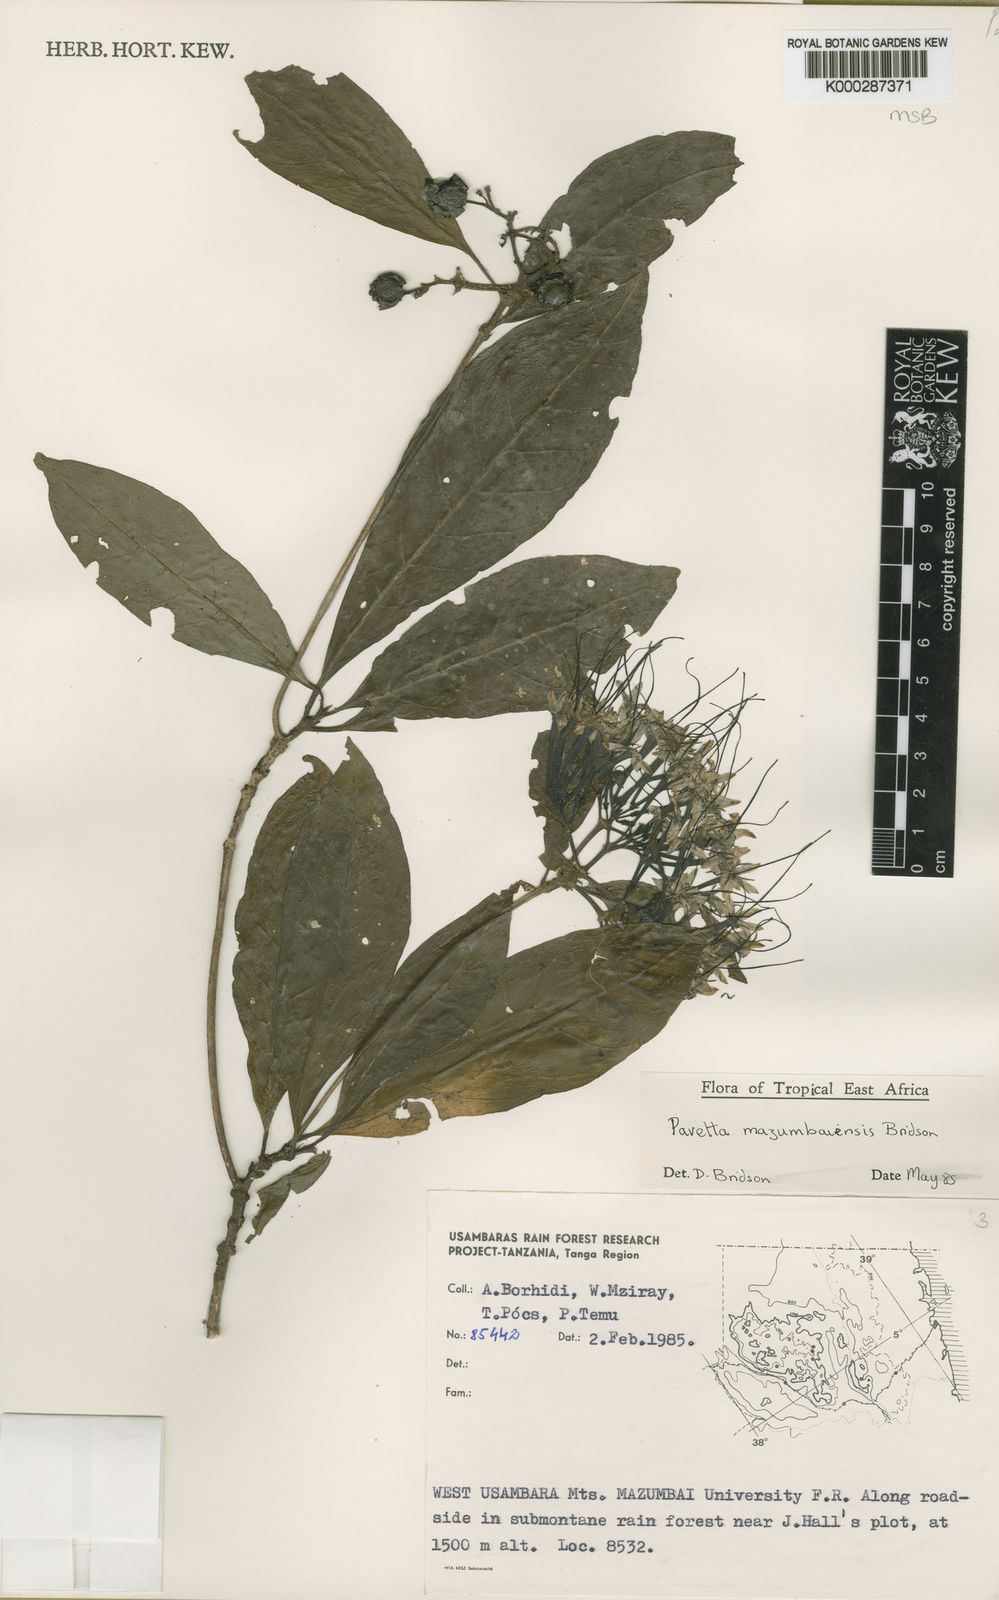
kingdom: Plantae
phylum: Tracheophyta
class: Magnoliopsida
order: Gentianales
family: Rubiaceae
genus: Pavetta
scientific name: Pavetta mazumbaiensis
